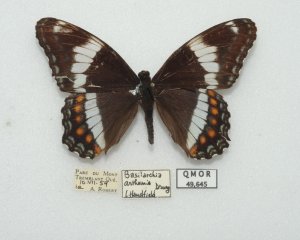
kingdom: Animalia
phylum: Arthropoda
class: Insecta
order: Lepidoptera
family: Nymphalidae
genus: Limenitis
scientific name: Limenitis arthemis
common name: Red-spotted Admiral
